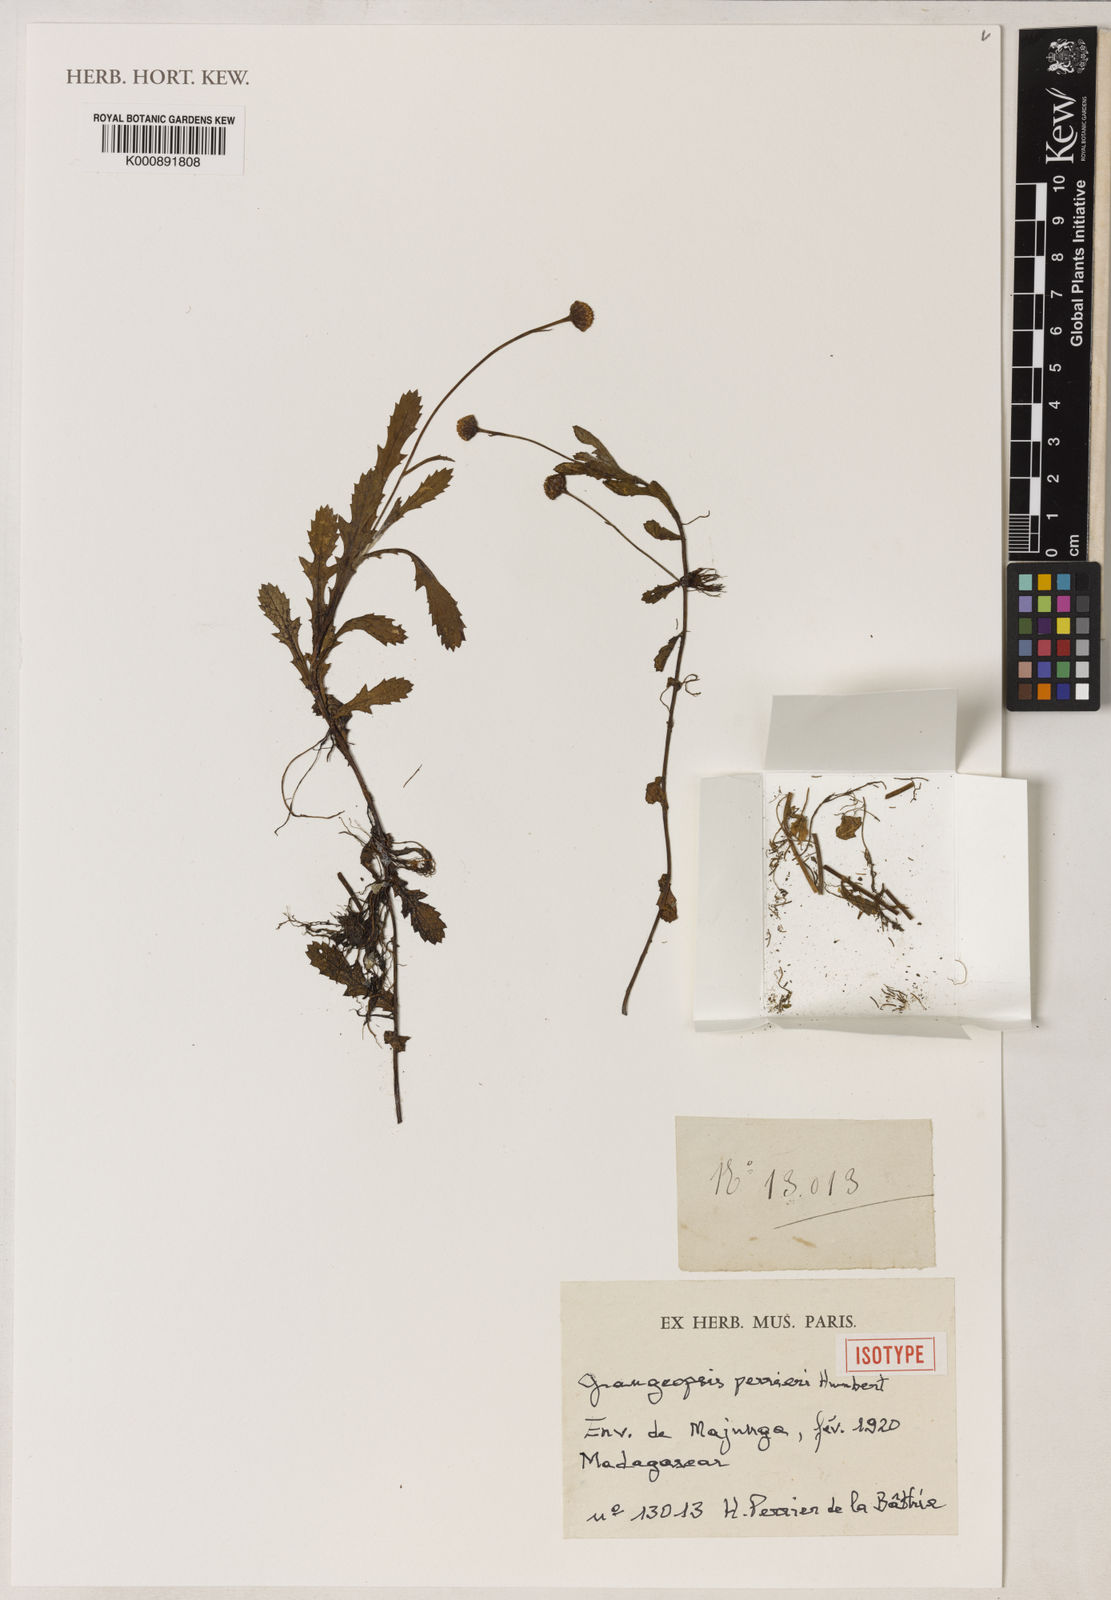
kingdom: Plantae
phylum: Tracheophyta
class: Magnoliopsida
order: Asterales
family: Asteraceae
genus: Grangeopsis
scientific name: Grangeopsis perrieri
